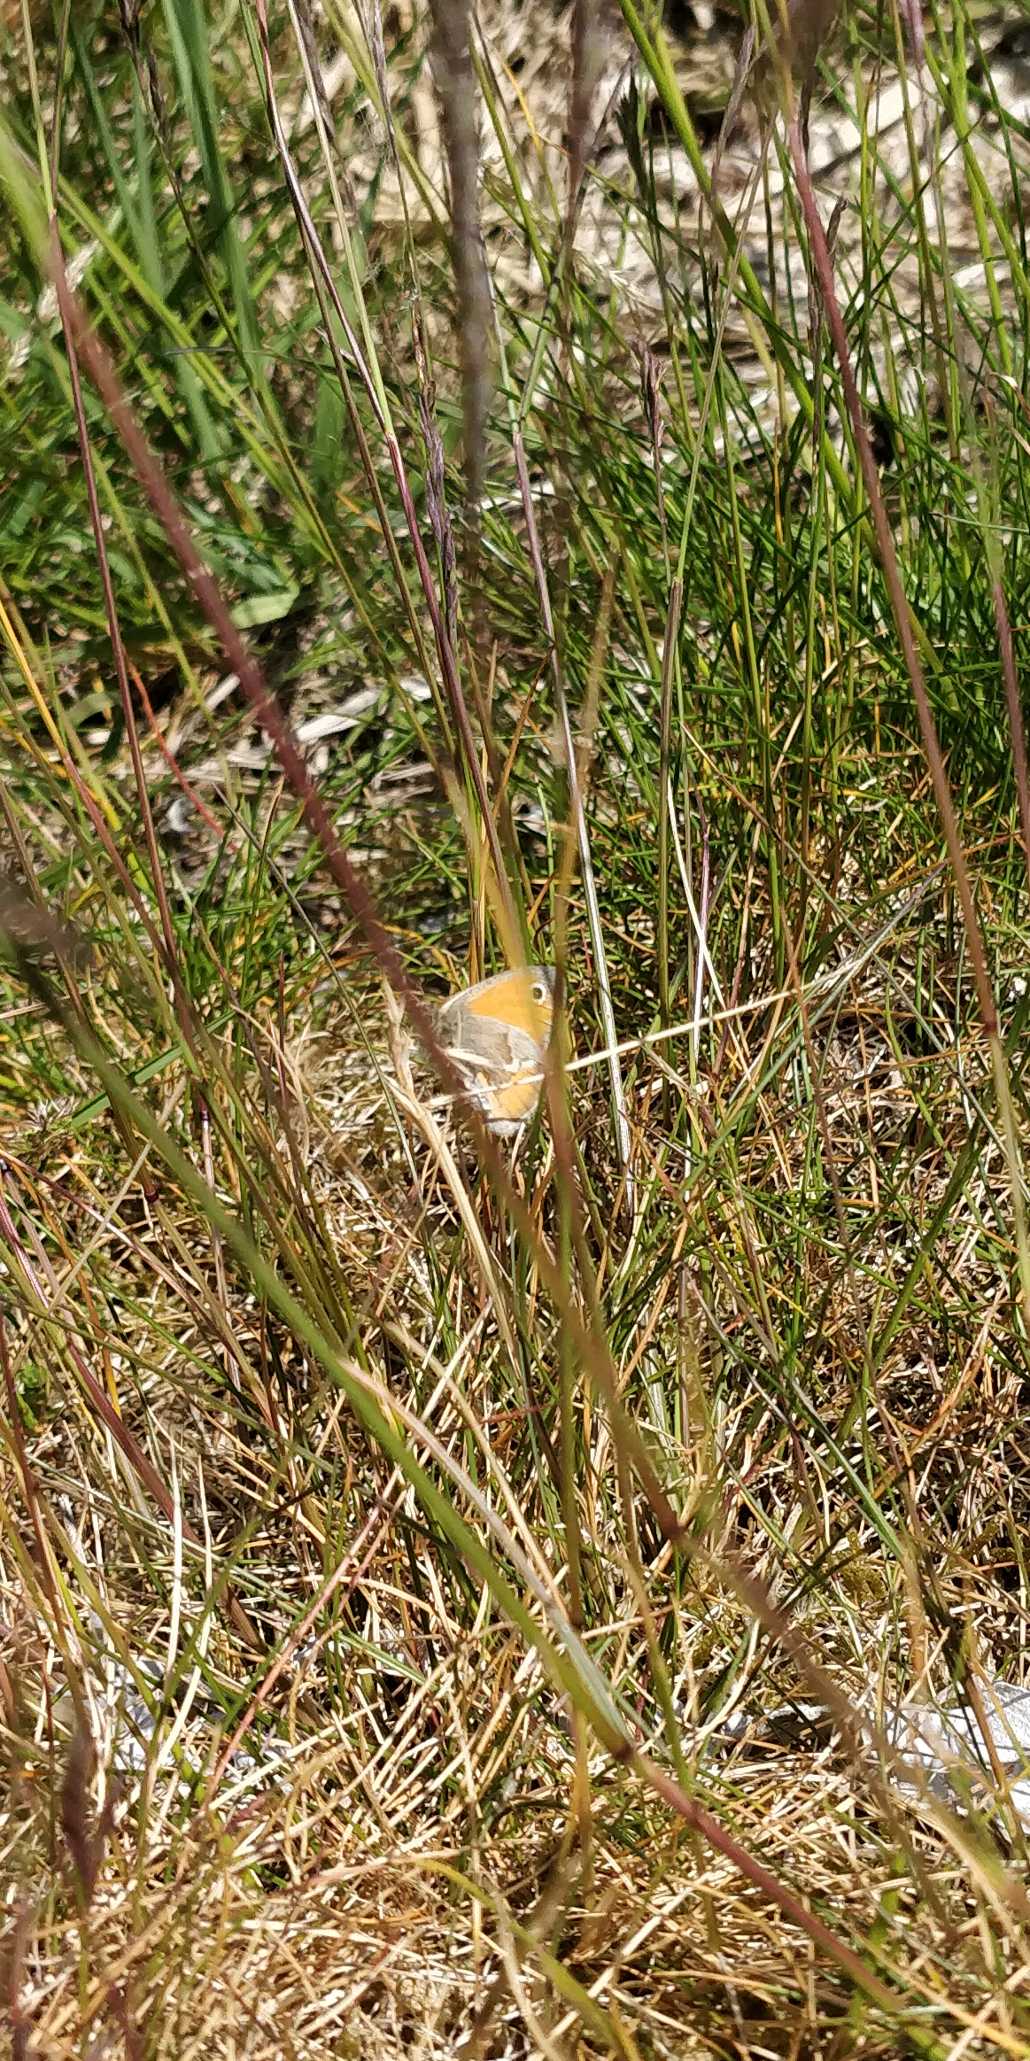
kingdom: Animalia
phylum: Arthropoda
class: Insecta
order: Lepidoptera
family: Nymphalidae
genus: Coenonympha
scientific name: Coenonympha pamphilus
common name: Okkergul randøje
